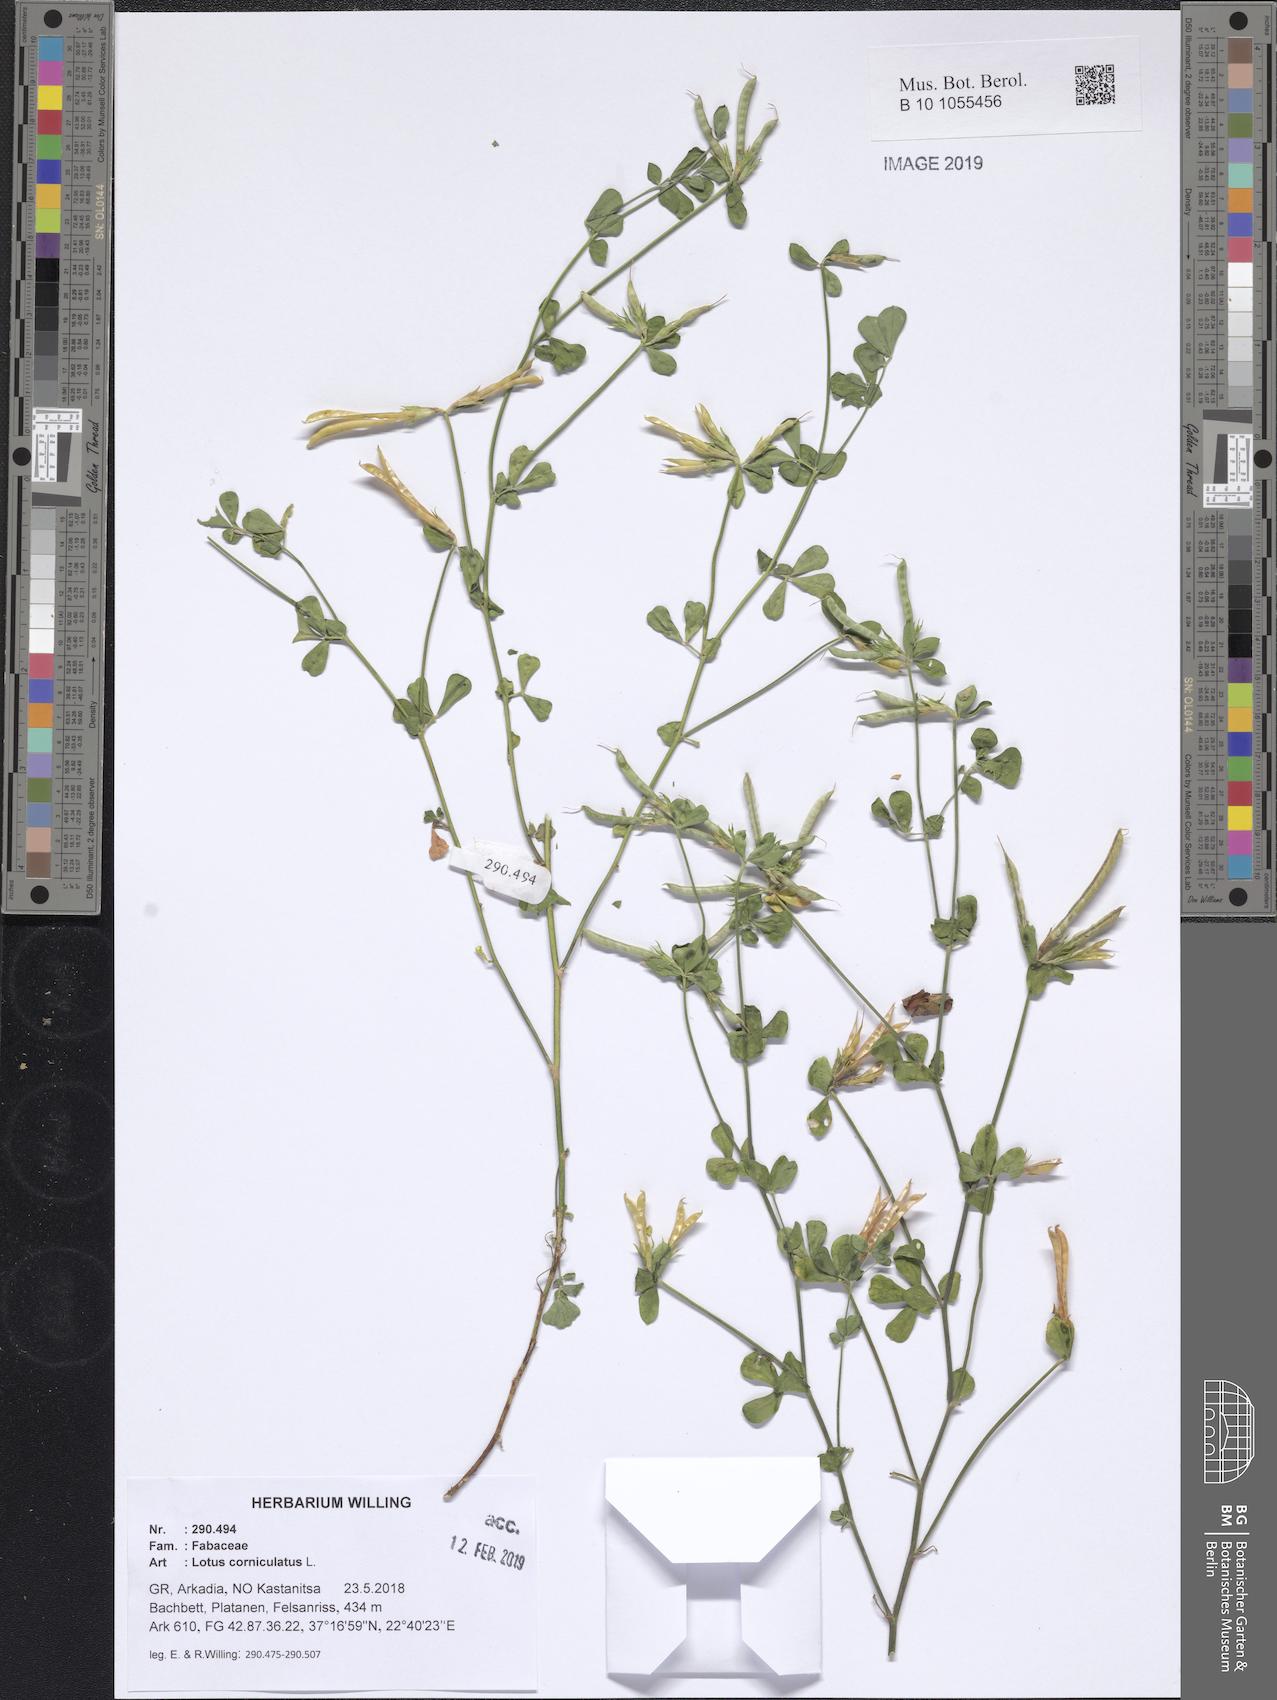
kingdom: Plantae
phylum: Tracheophyta
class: Magnoliopsida
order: Fabales
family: Fabaceae
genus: Lotus
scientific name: Lotus corniculatus
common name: Common bird's-foot-trefoil
